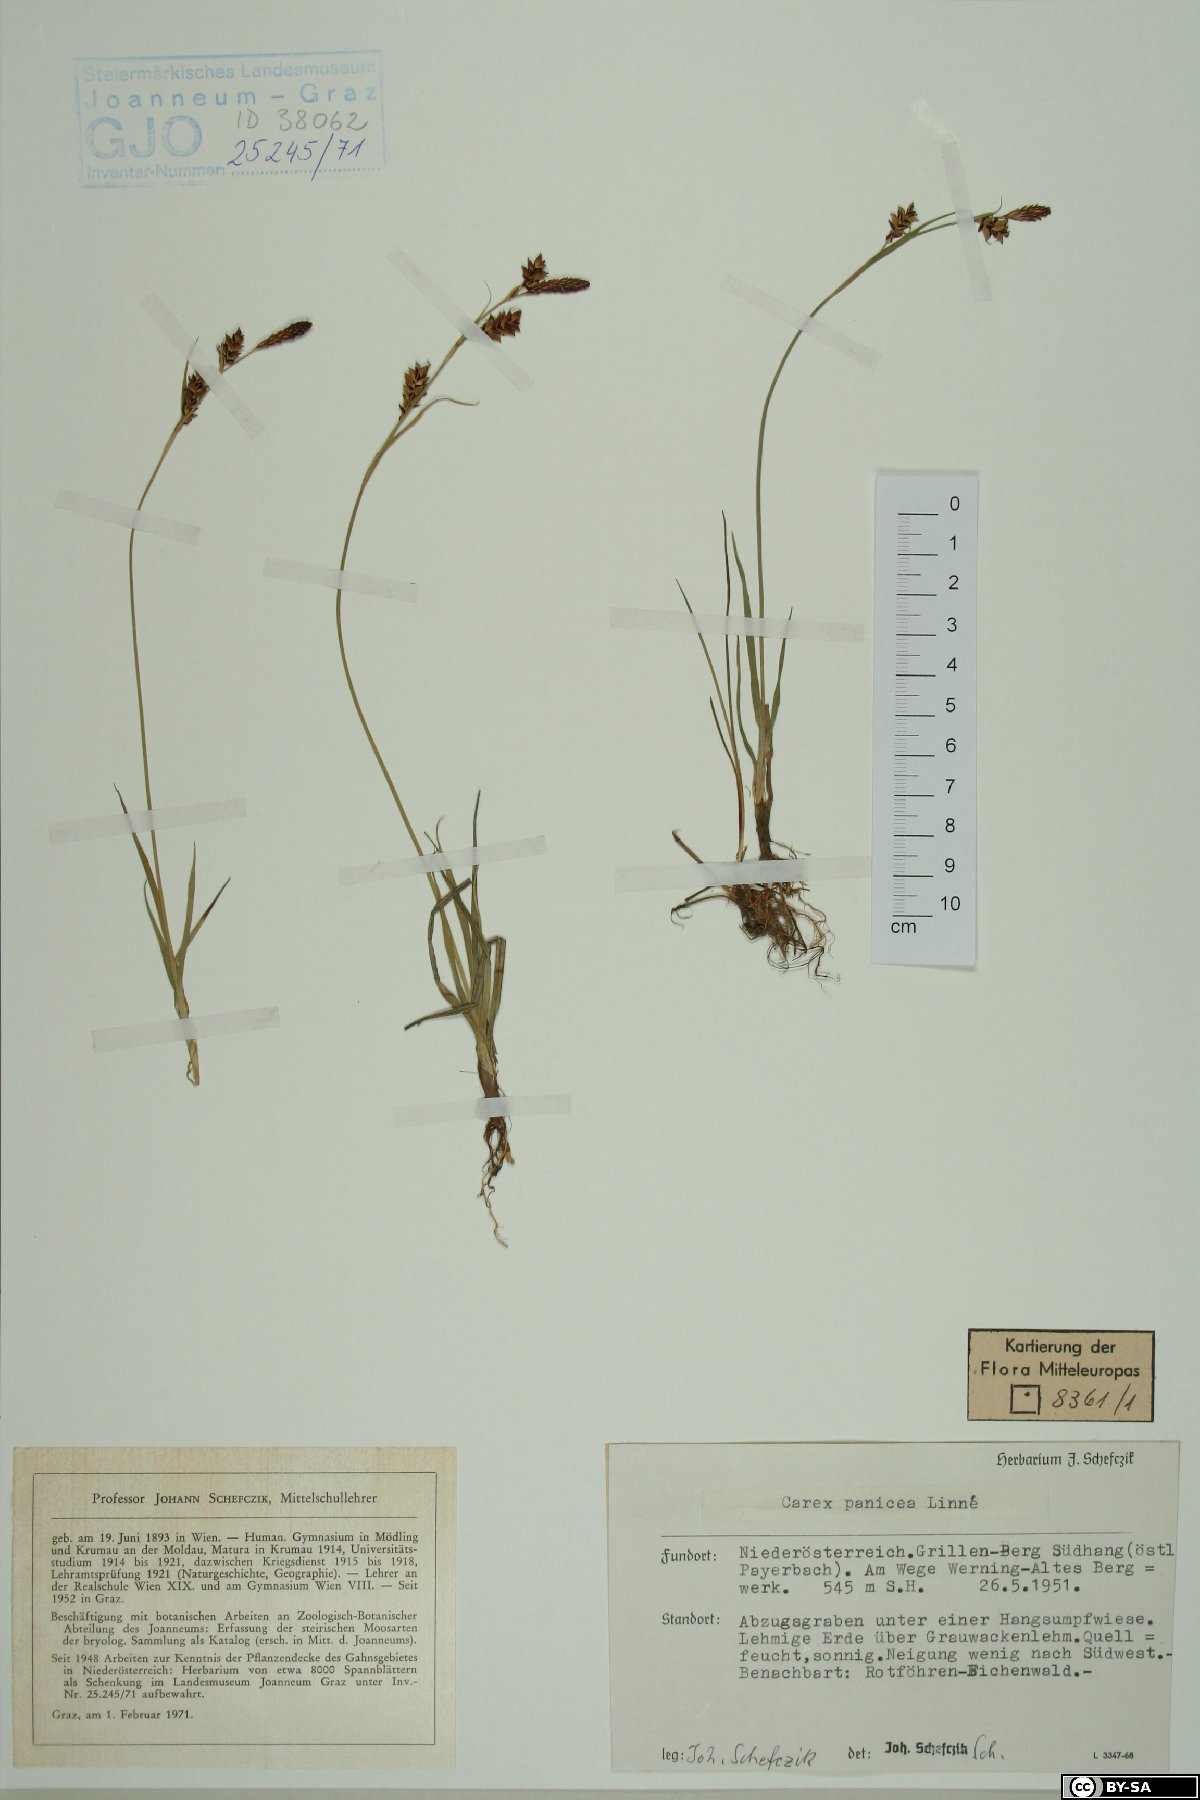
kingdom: Plantae
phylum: Tracheophyta
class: Liliopsida
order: Poales
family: Cyperaceae
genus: Carex
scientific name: Carex panicea
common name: Carnation sedge
